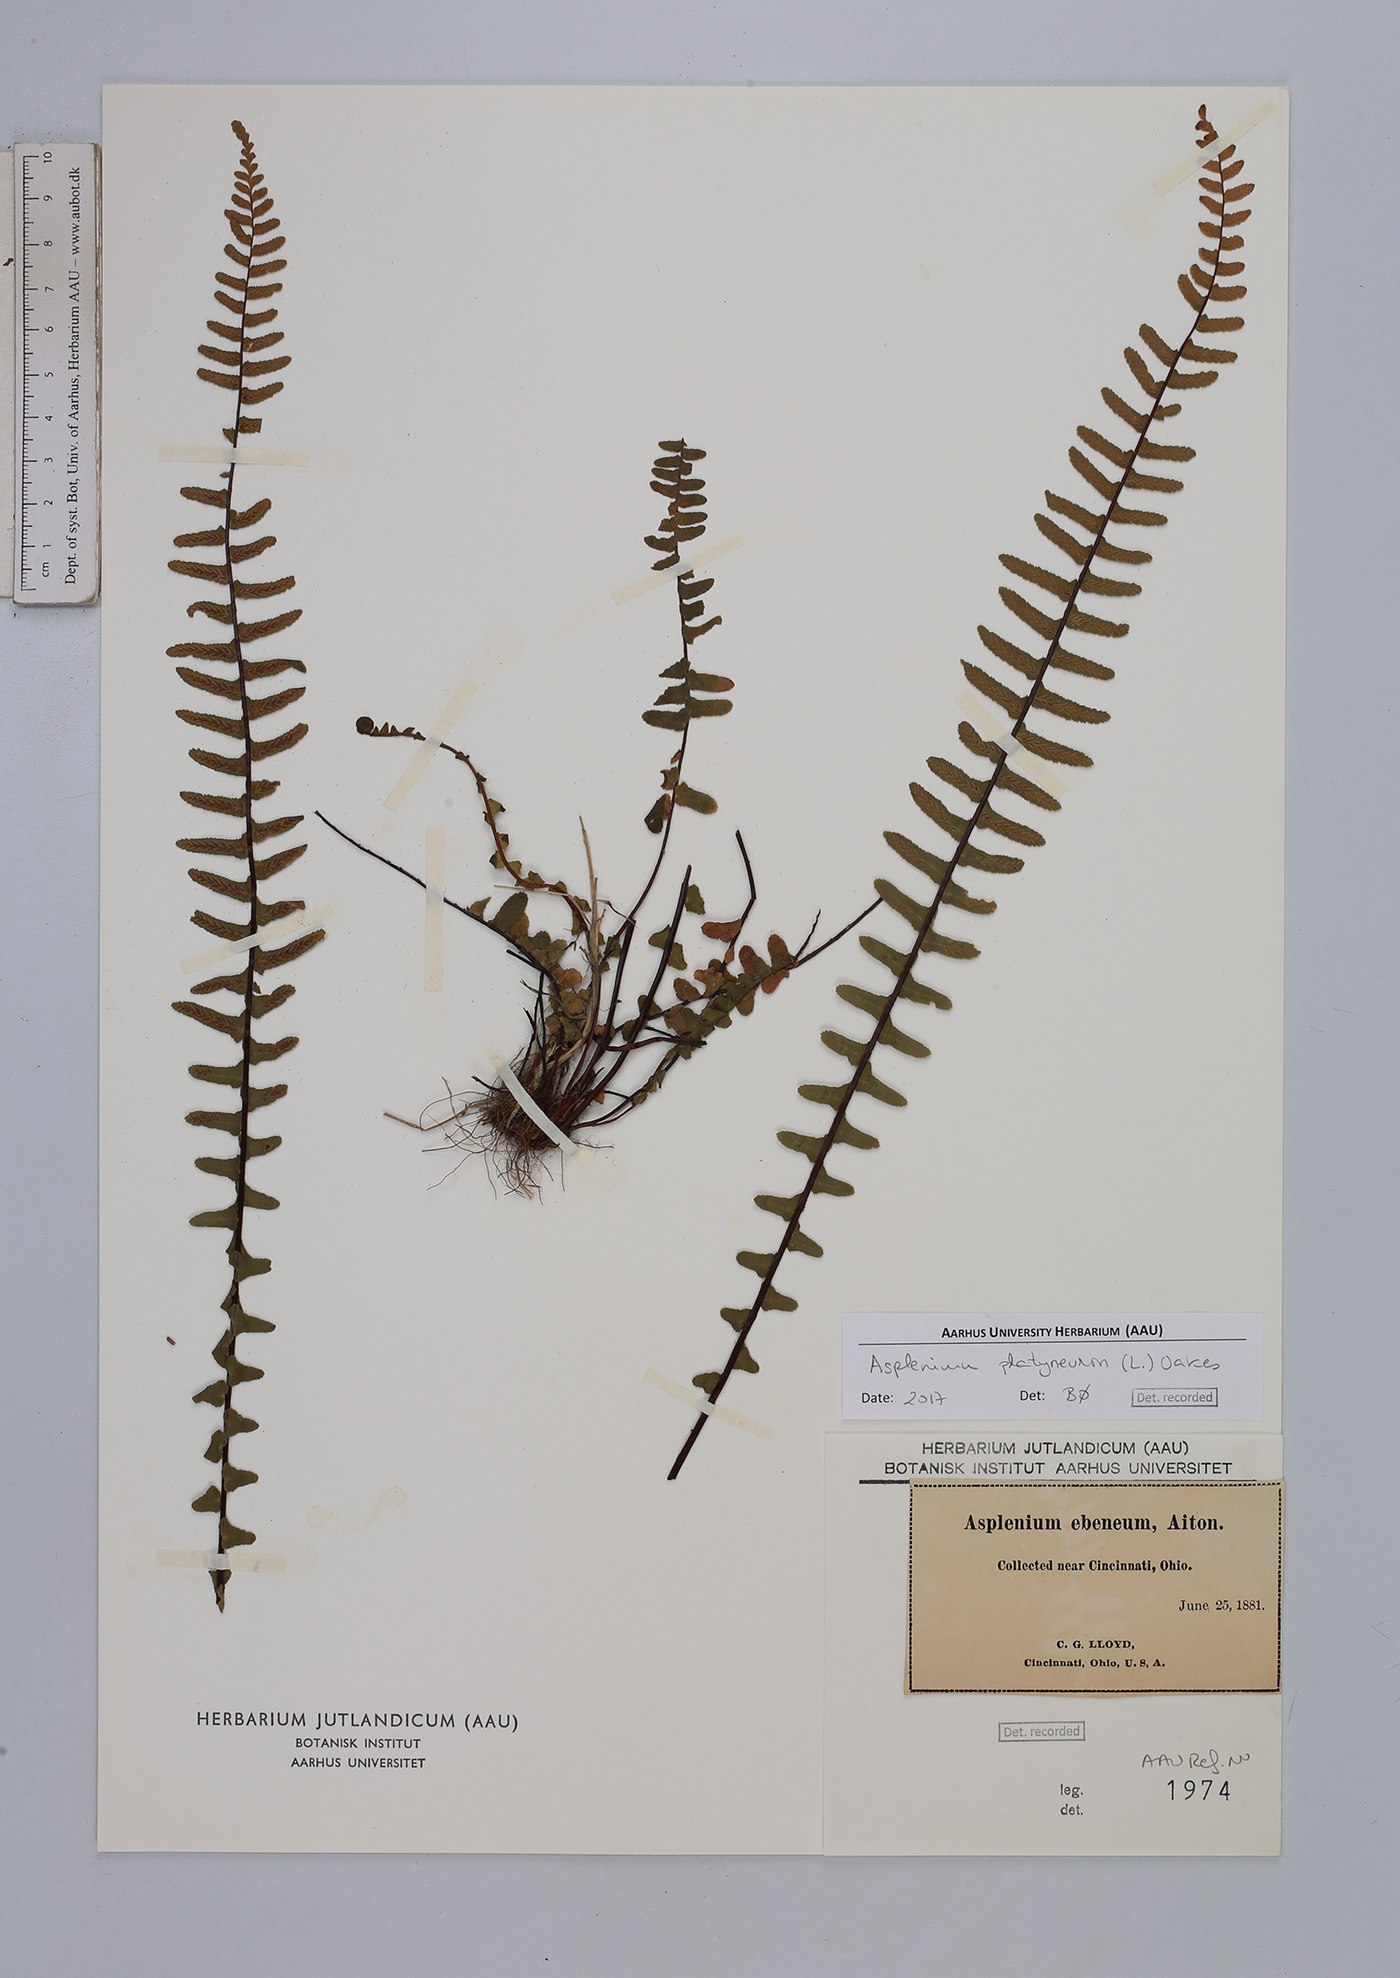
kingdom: Plantae
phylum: Tracheophyta
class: Polypodiopsida
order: Polypodiales
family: Aspleniaceae
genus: Asplenium
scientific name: Asplenium platyneuron
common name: Ebony spleenwort
